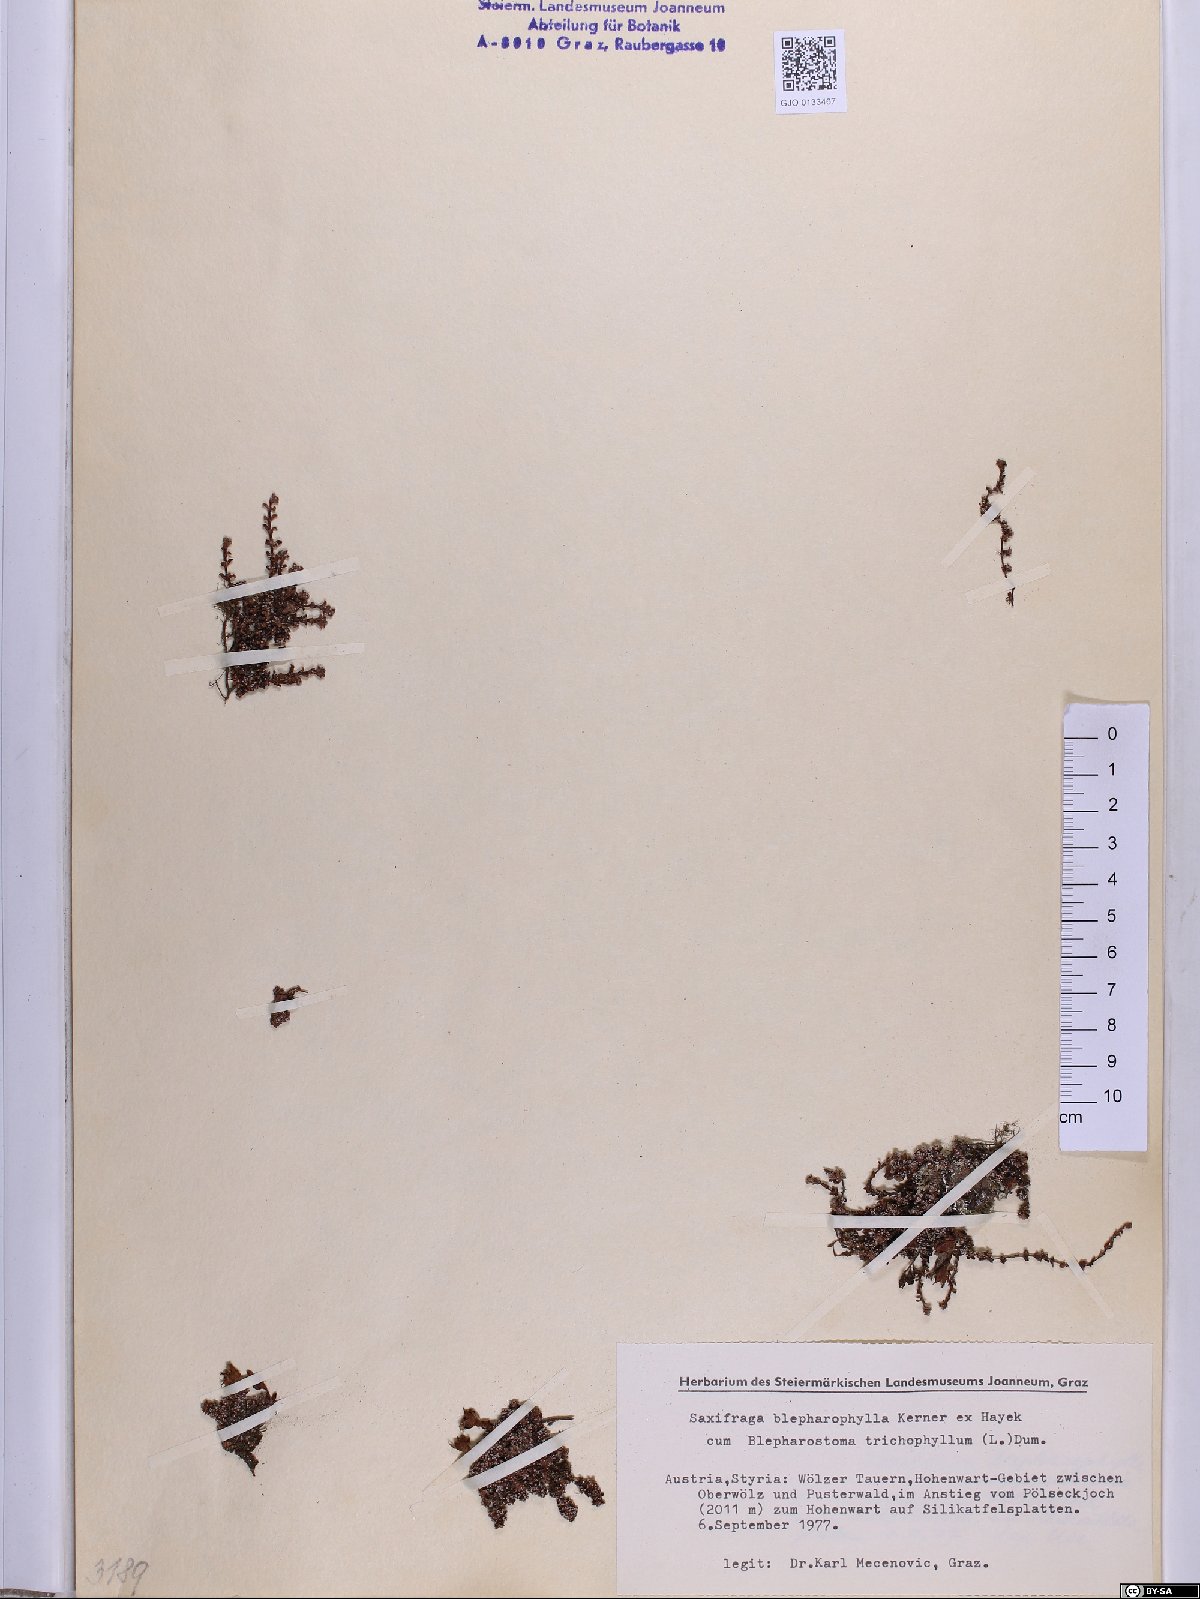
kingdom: Plantae
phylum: Tracheophyta
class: Magnoliopsida
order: Saxifragales
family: Saxifragaceae
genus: Saxifraga
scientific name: Saxifraga oppositifolia
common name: Purple saxifrage
